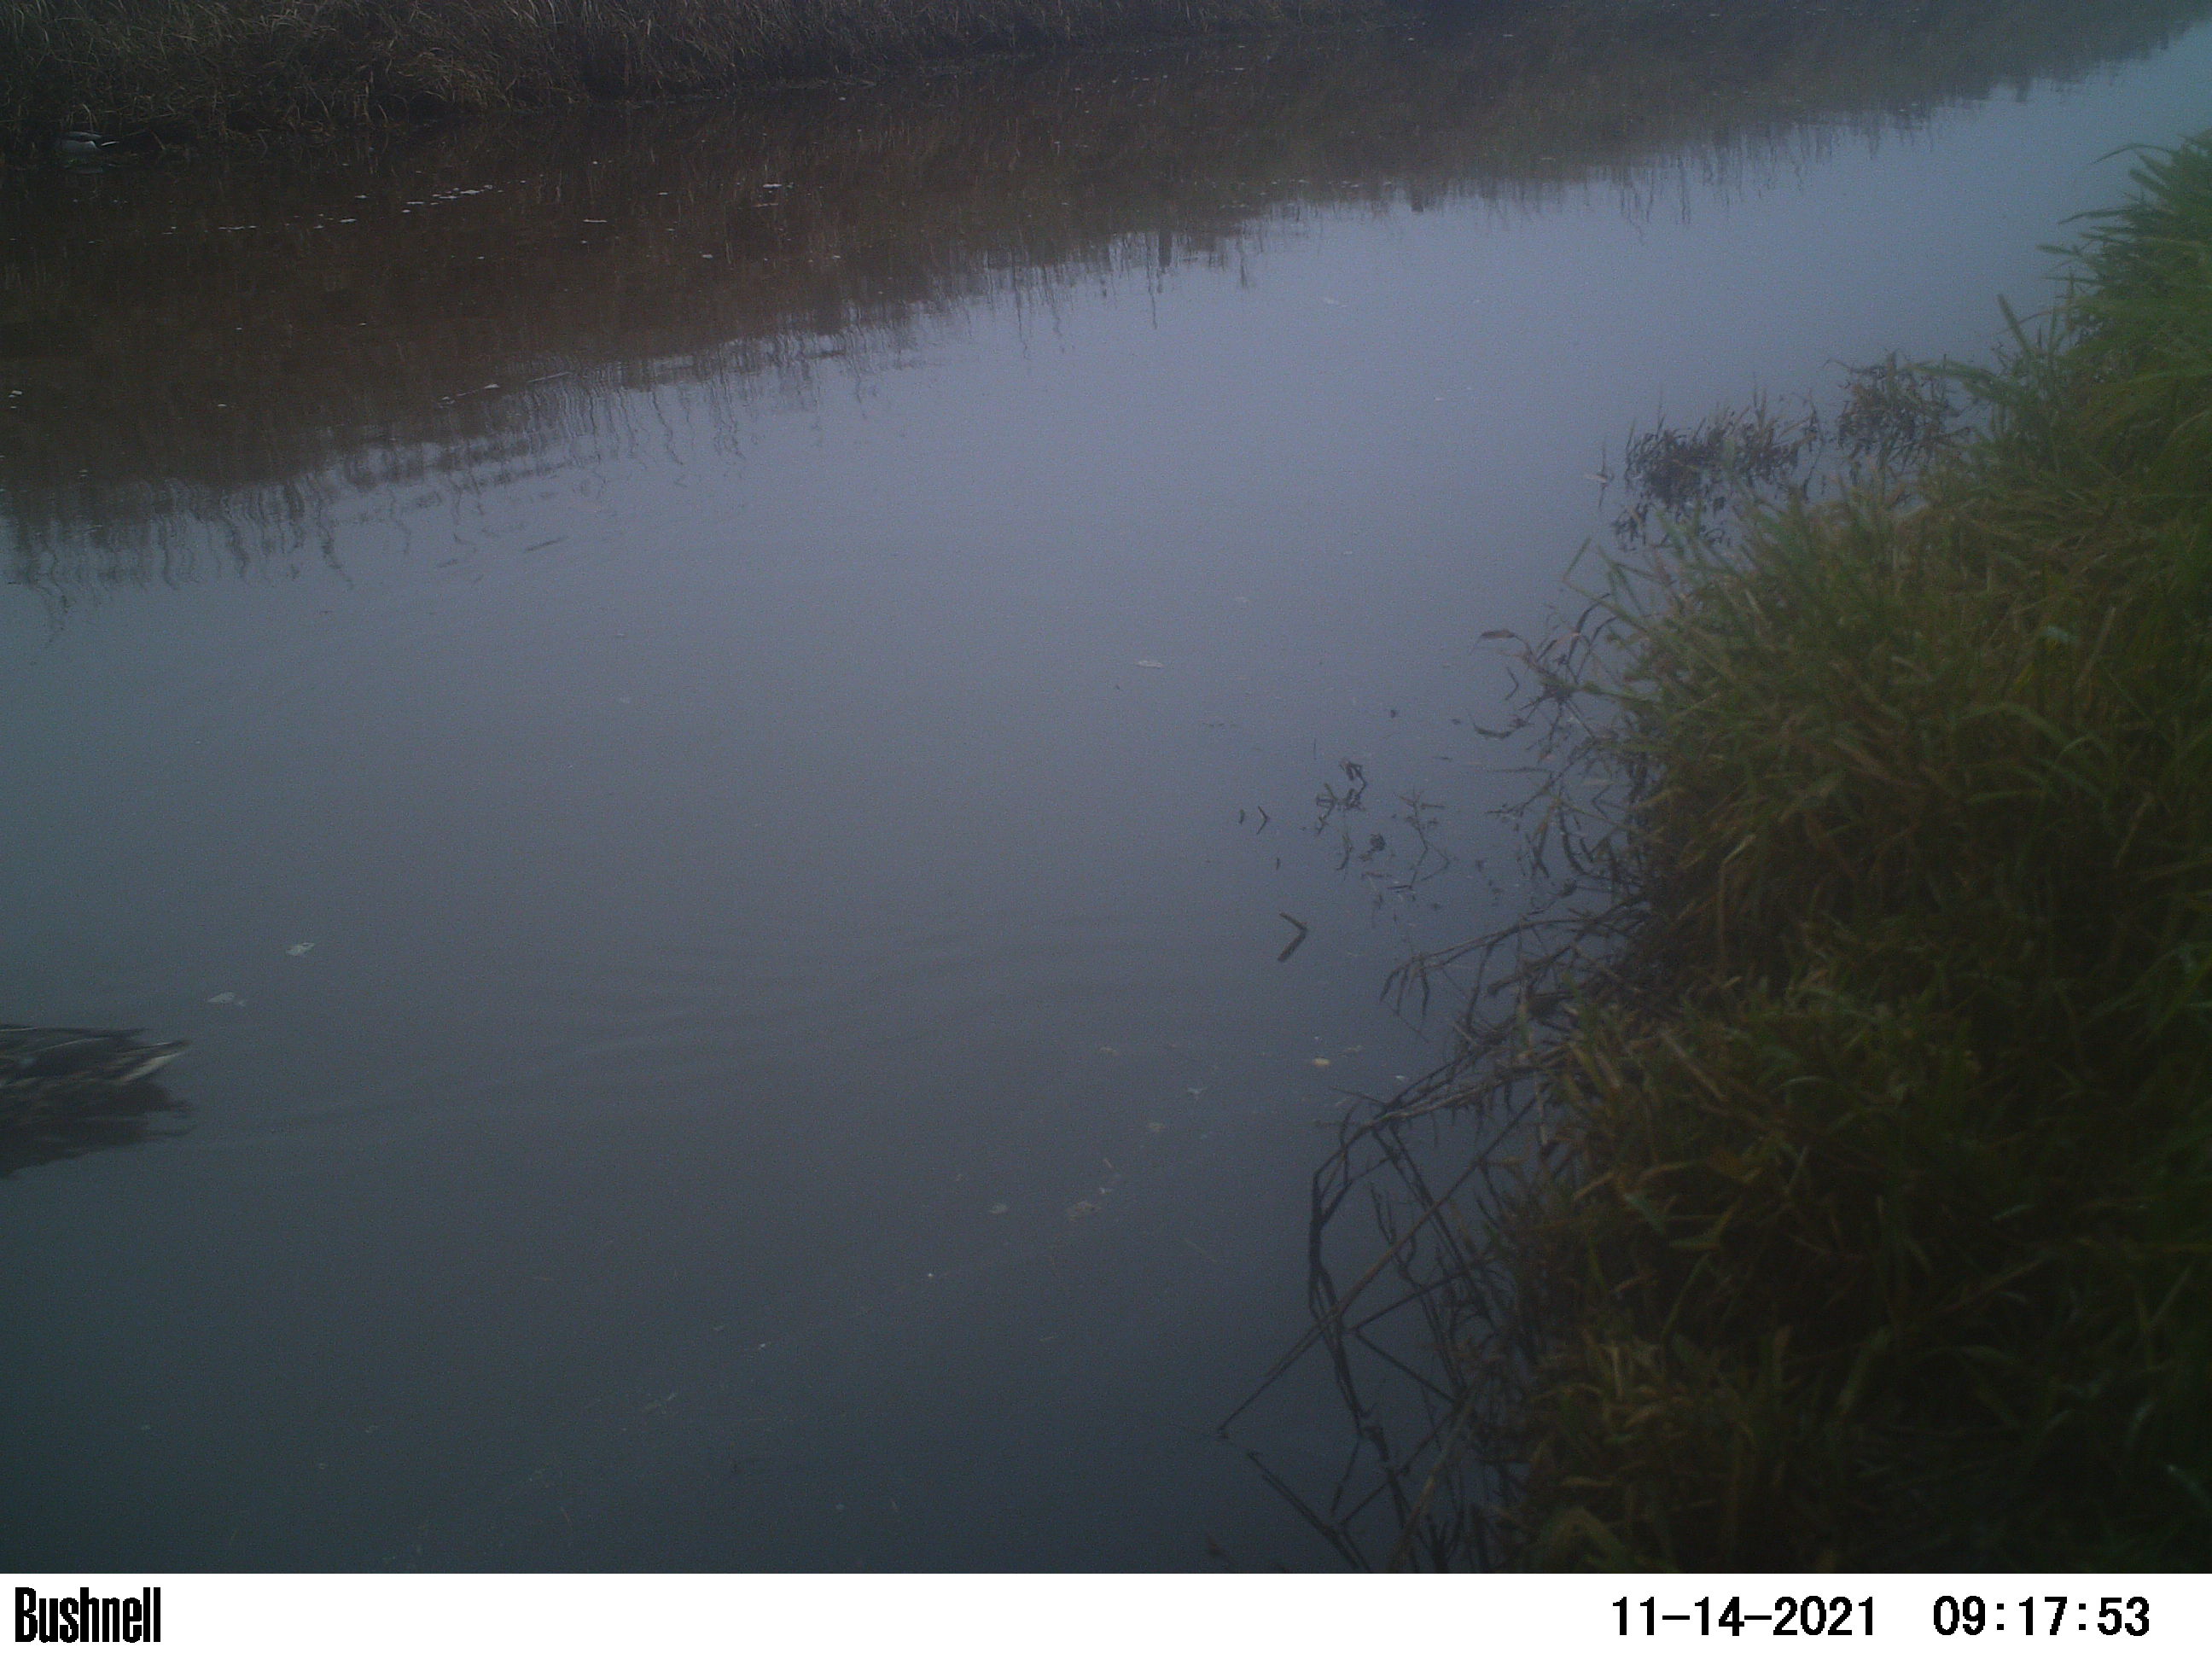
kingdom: Animalia
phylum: Chordata
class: Aves
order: Anseriformes
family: Anatidae
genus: Anas
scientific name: Anas
